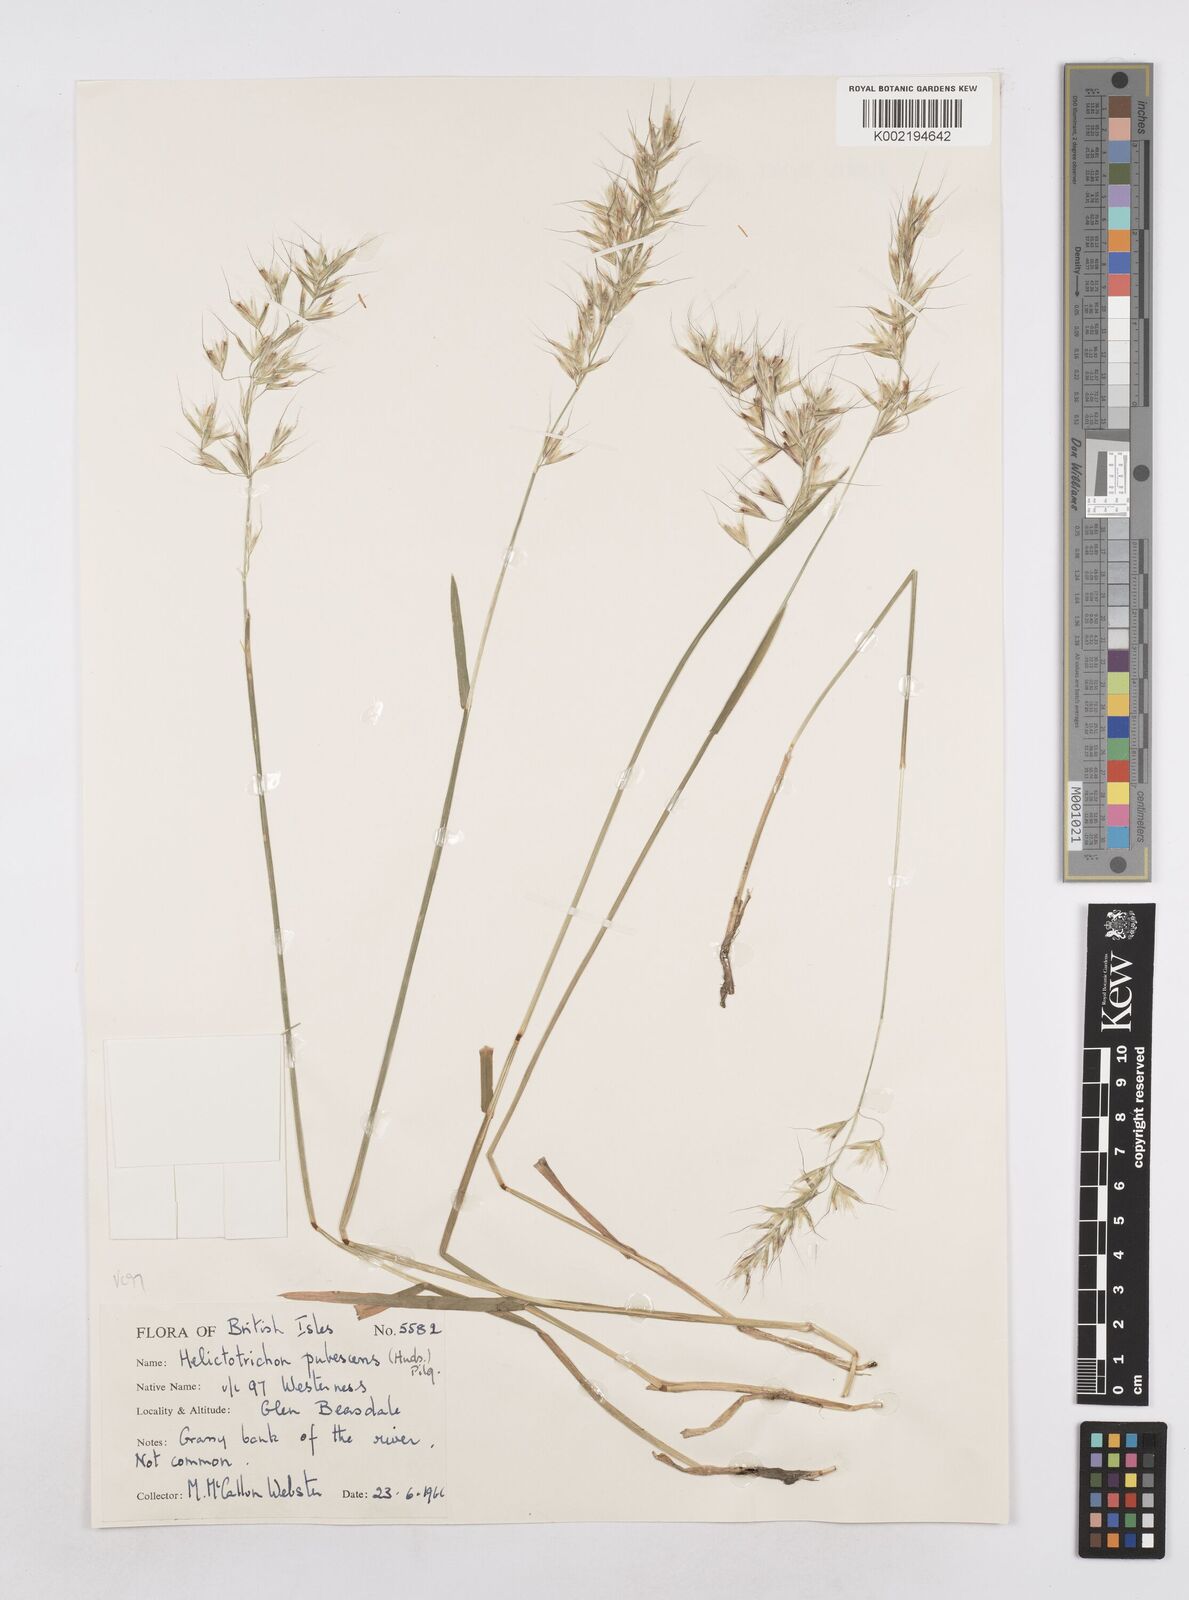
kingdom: Plantae
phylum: Tracheophyta
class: Liliopsida
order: Poales
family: Poaceae
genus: Avenula
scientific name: Avenula pubescens
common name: Downy alpine oatgrass
